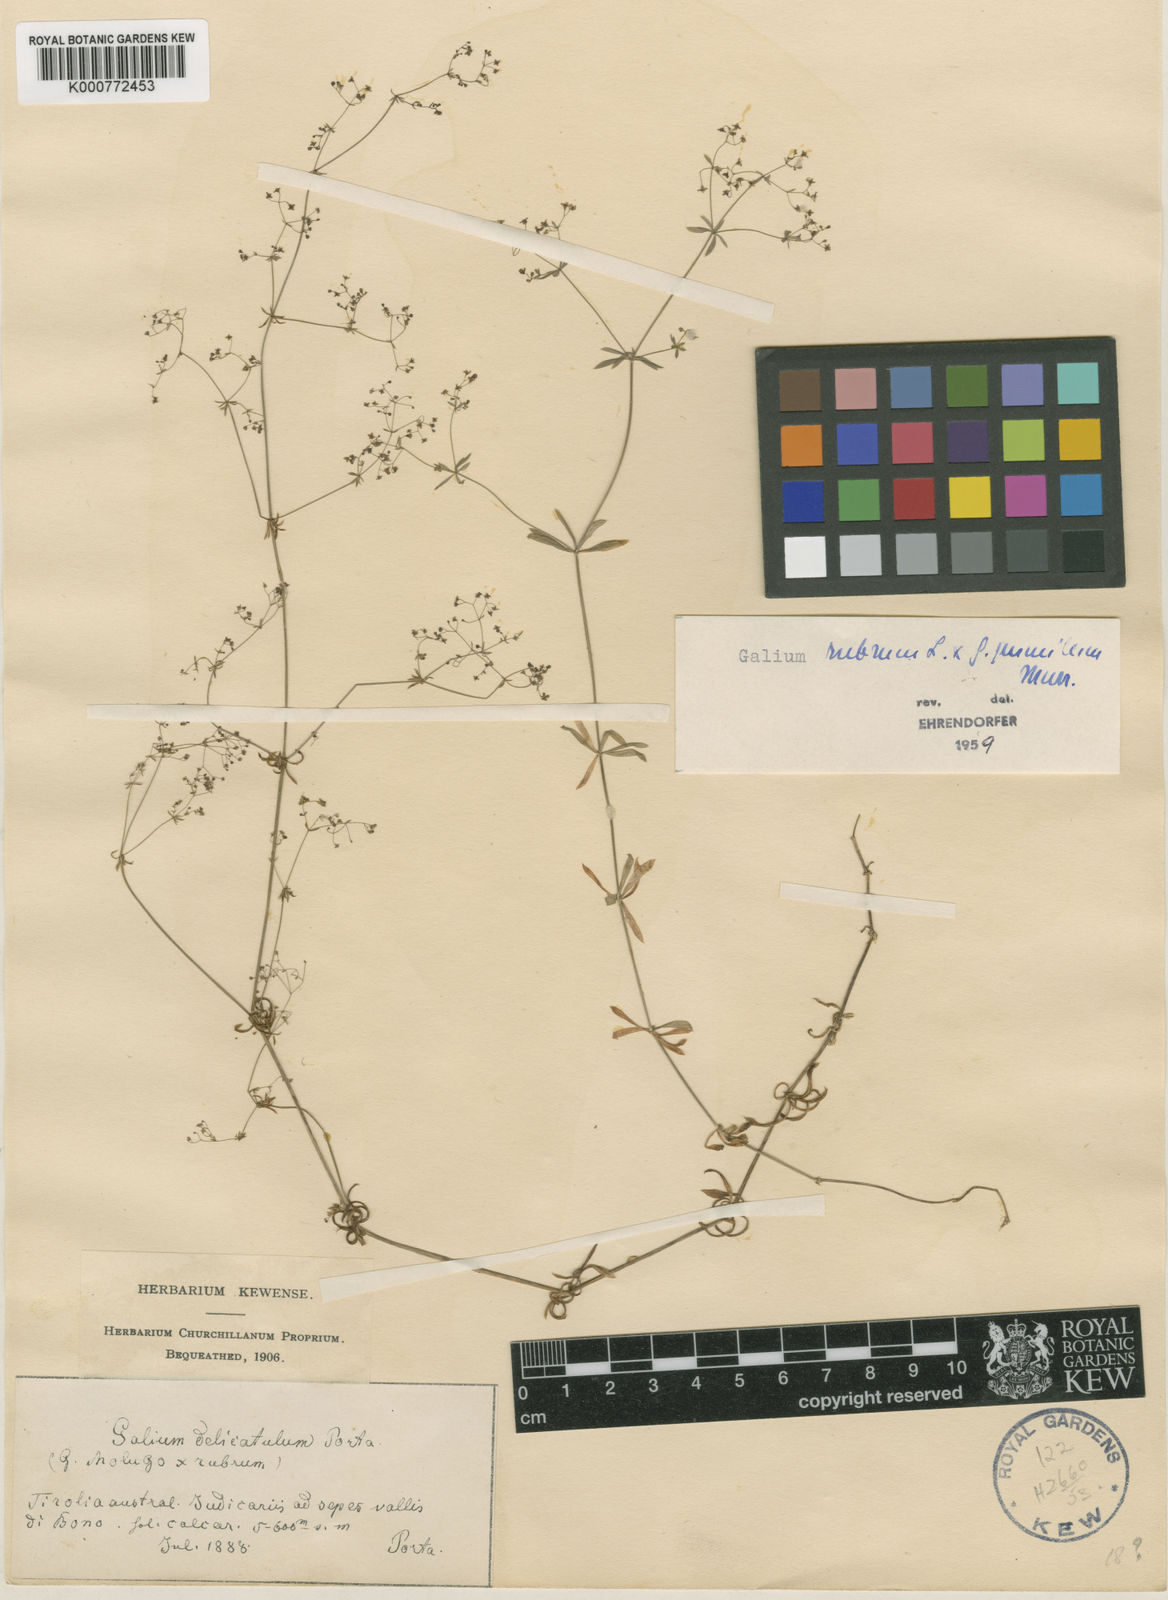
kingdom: Plantae
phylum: Tracheophyta
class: Magnoliopsida
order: Gentianales
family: Rubiaceae
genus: Galium
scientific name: Galium centroniae
